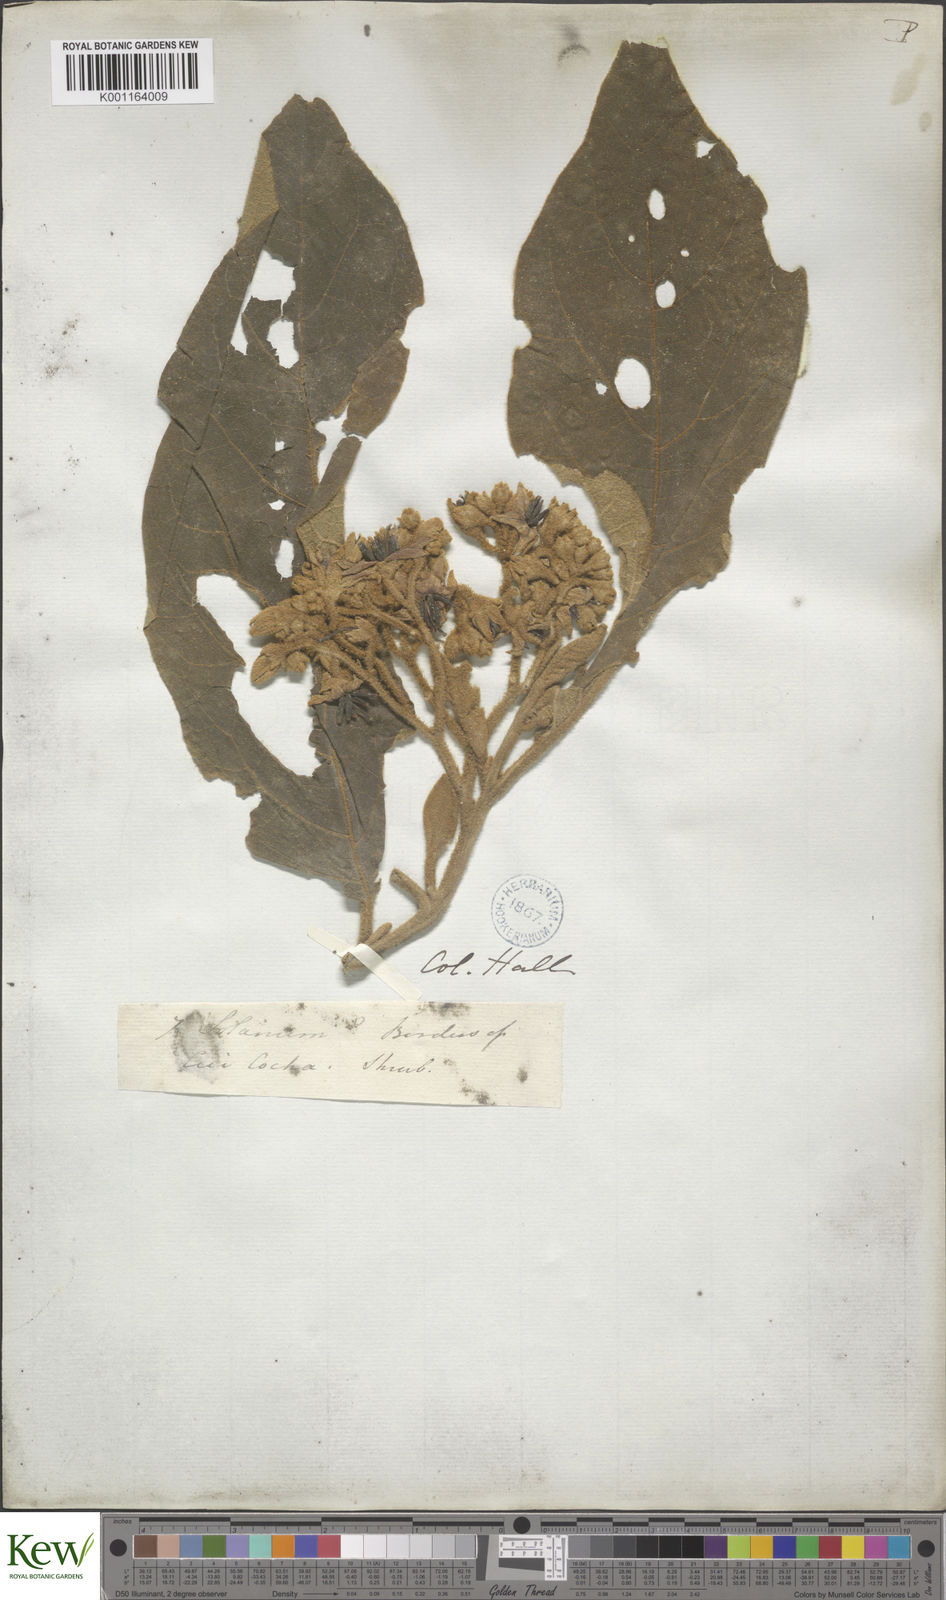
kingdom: Plantae
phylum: Tracheophyta
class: Magnoliopsida
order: Solanales
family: Solanaceae
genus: Solanum
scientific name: Solanum grandiflorum
